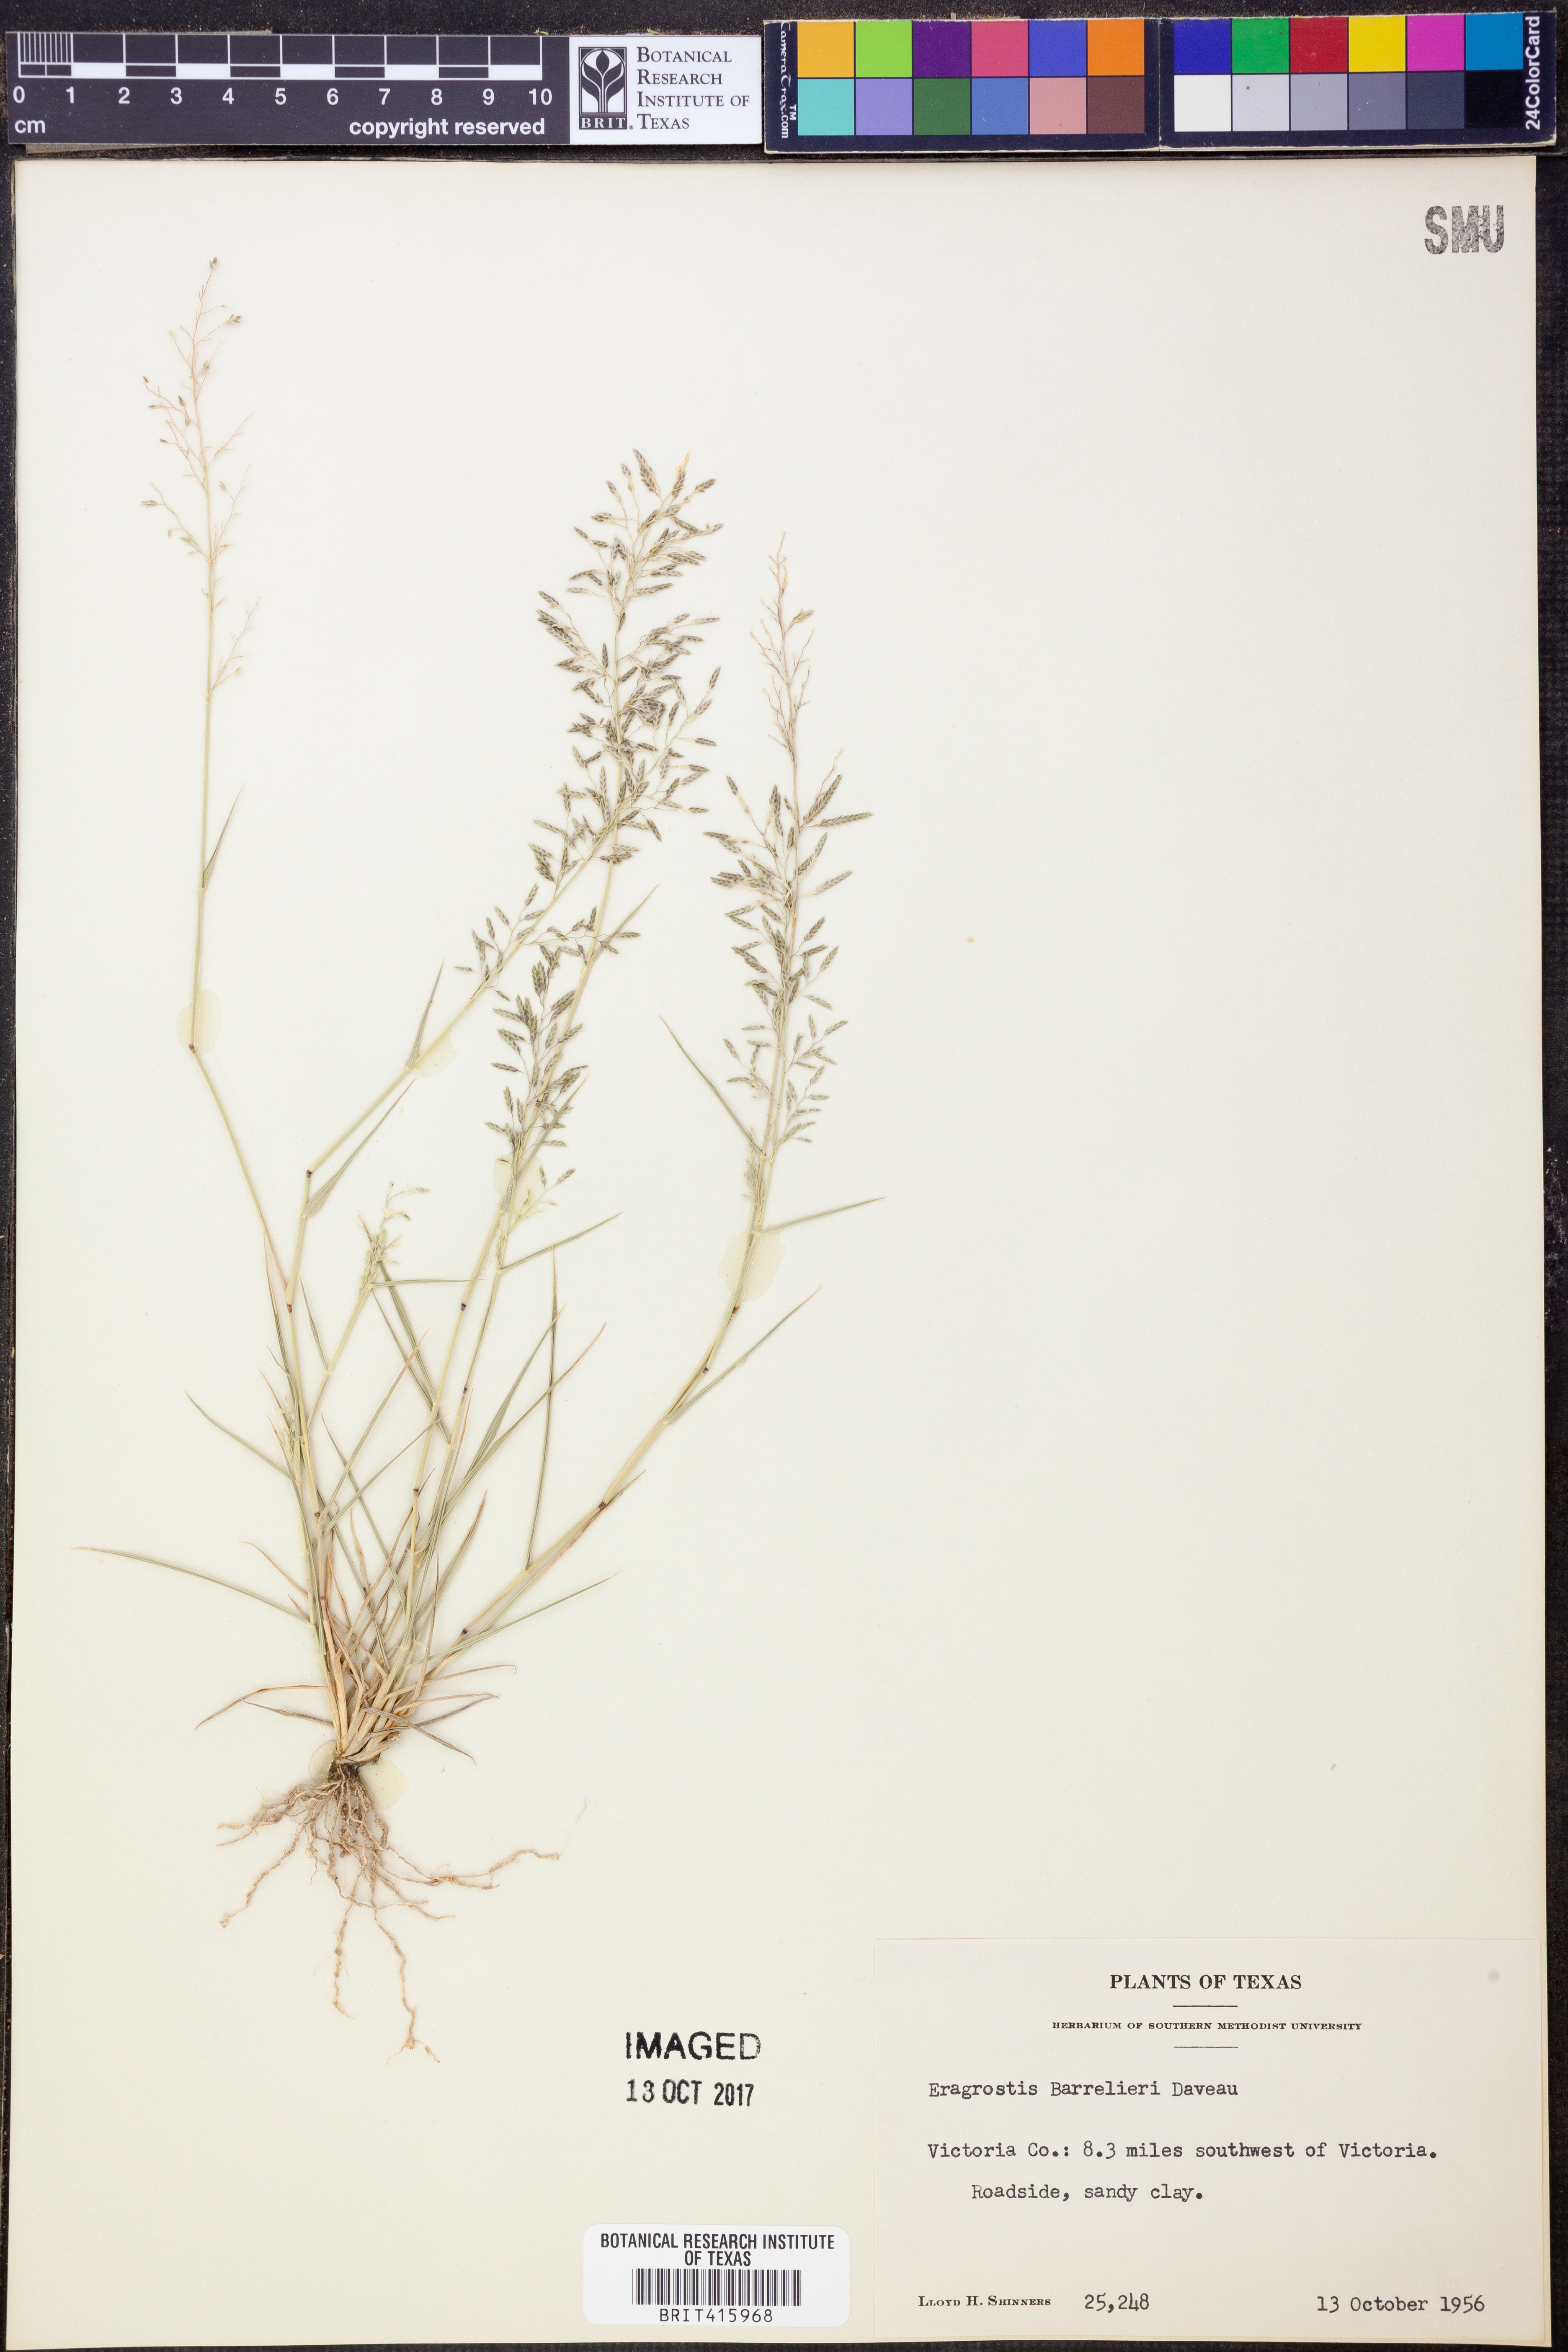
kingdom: Plantae
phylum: Tracheophyta
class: Liliopsida
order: Poales
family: Poaceae
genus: Eragrostis
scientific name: Eragrostis barrelieri
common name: Mediterranean lovegrass
